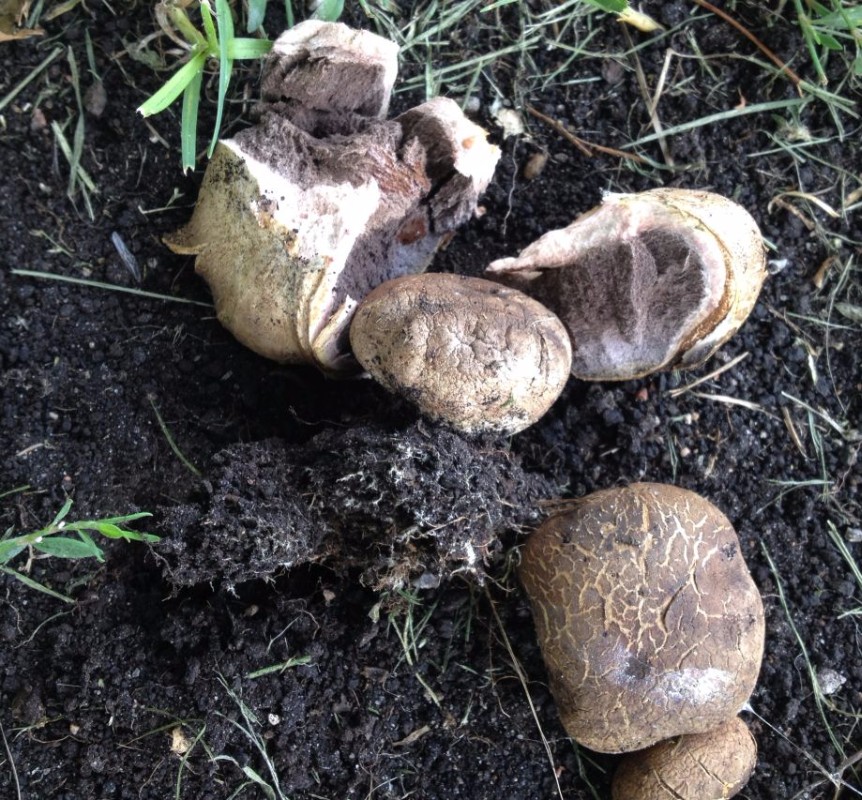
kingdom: Fungi
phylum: Basidiomycota
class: Agaricomycetes
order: Boletales
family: Sclerodermataceae
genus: Scleroderma
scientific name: Scleroderma
